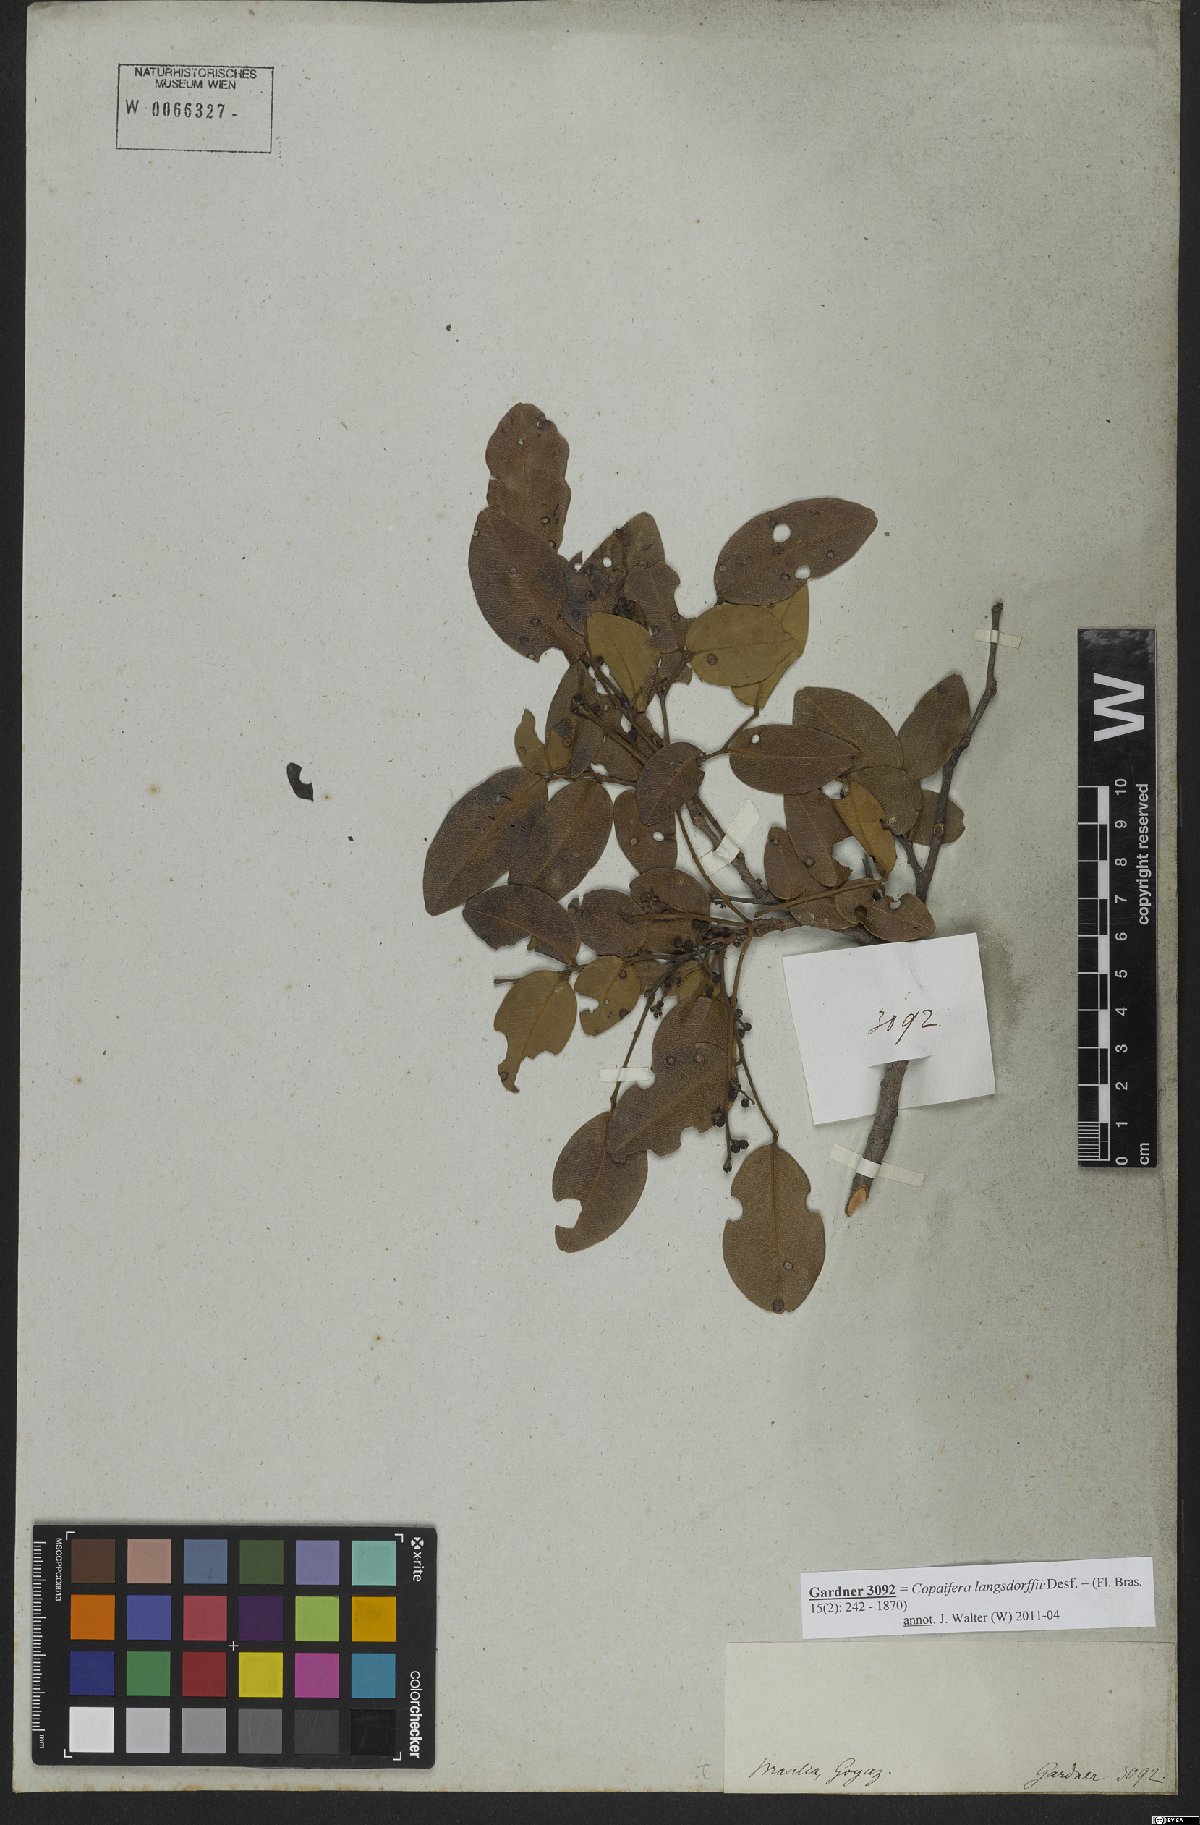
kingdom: Plantae
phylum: Tracheophyta
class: Magnoliopsida
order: Fabales
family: Fabaceae
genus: Copaifera
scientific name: Copaifera langsdorffii
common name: Brazilian diesel tree
